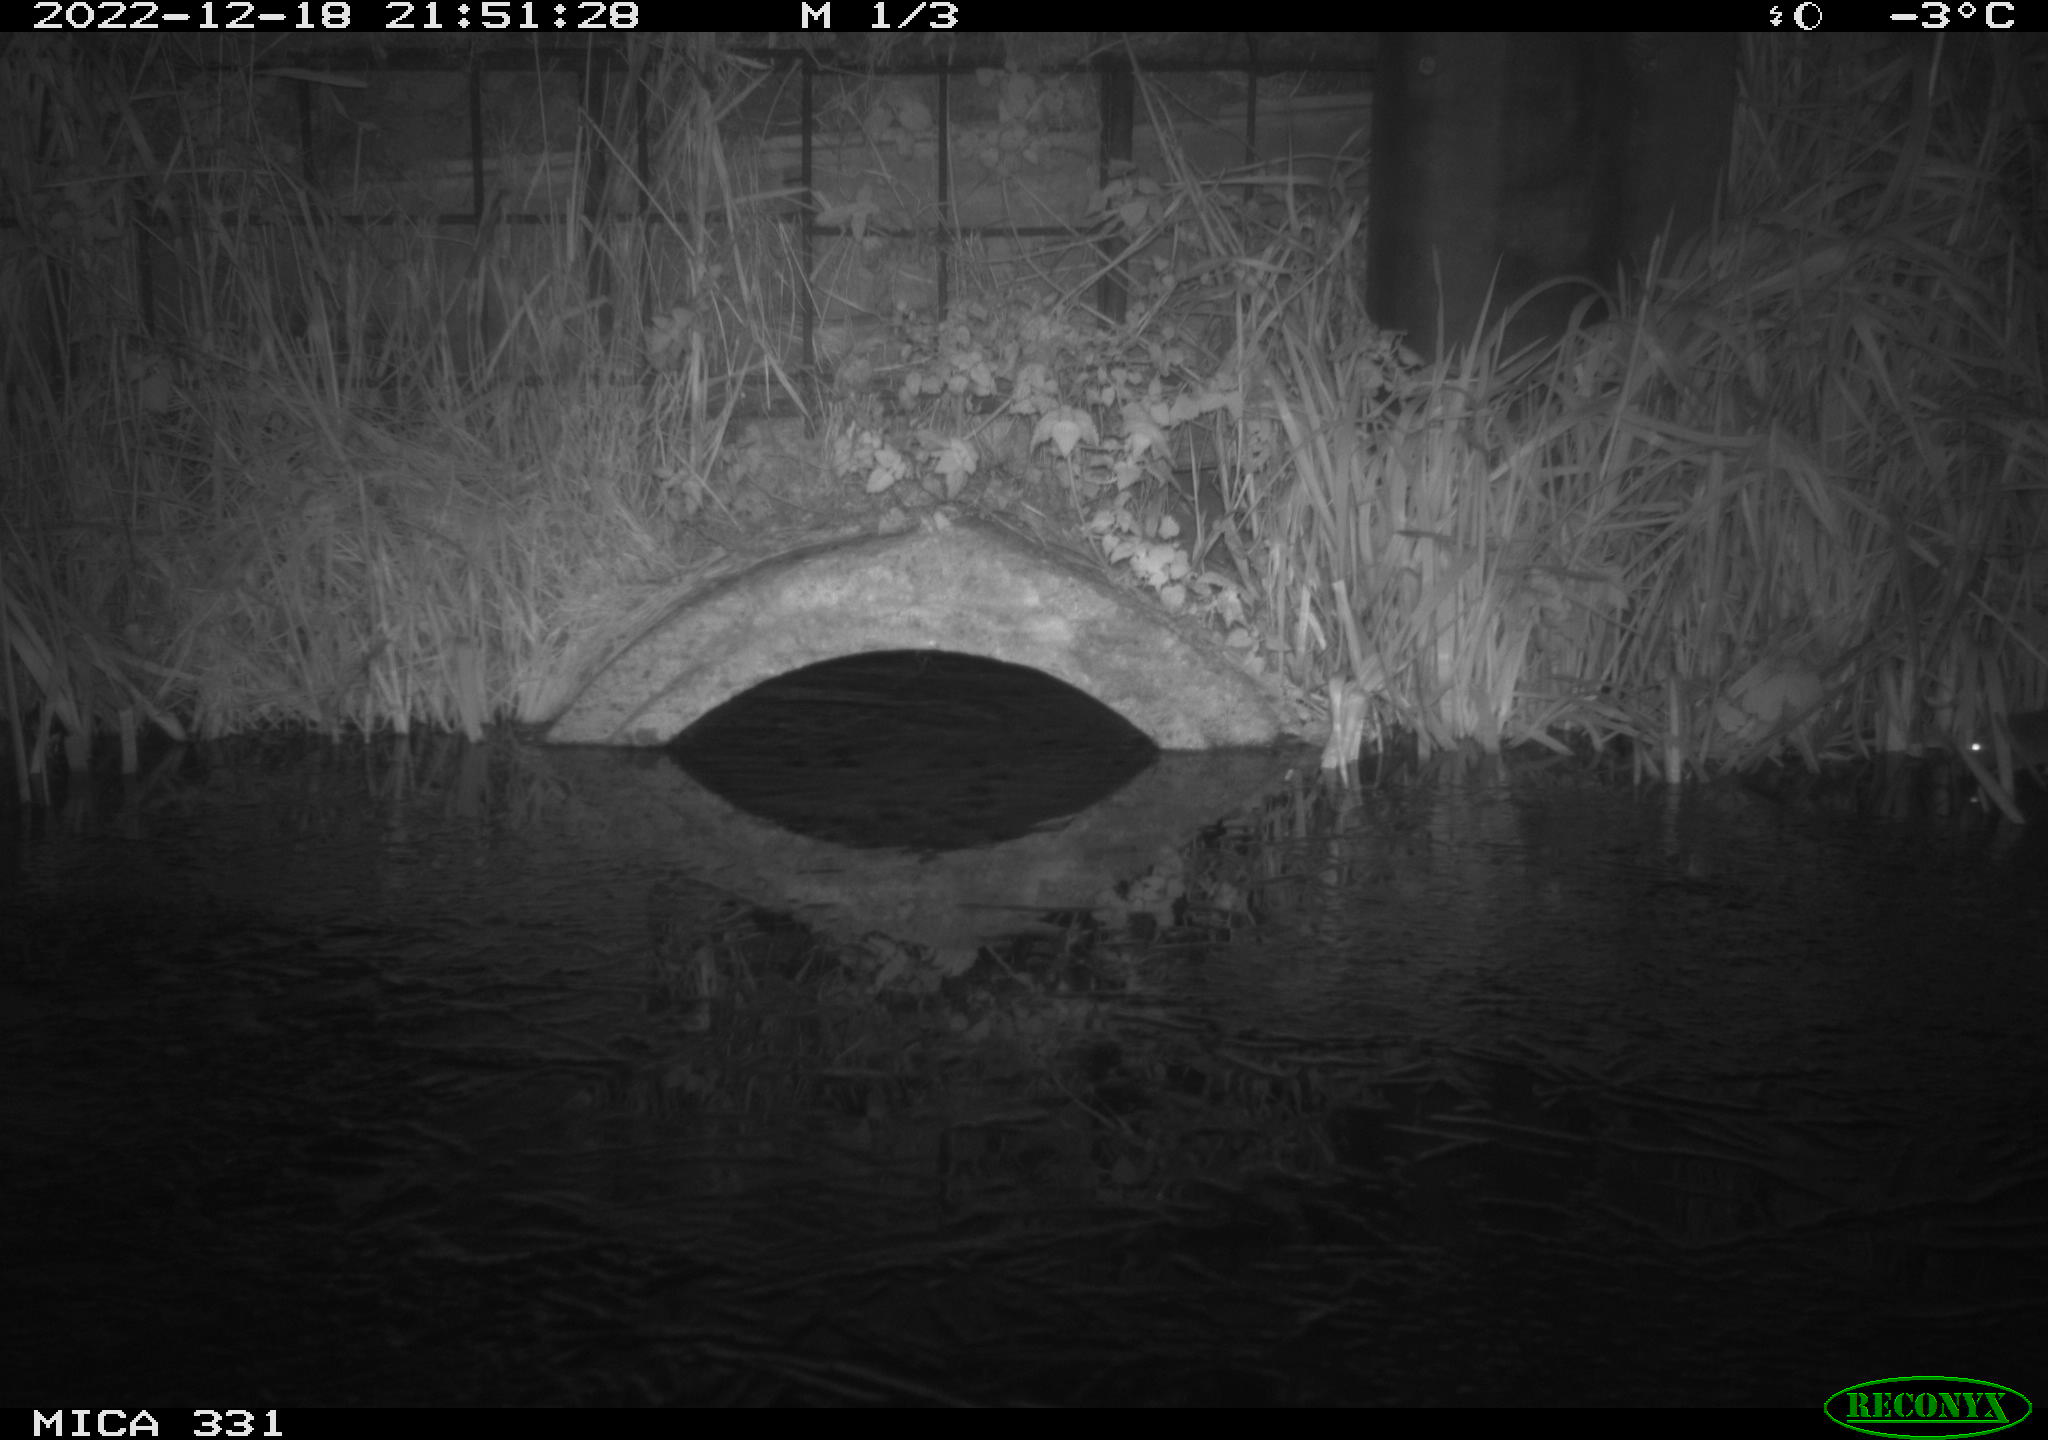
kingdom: Animalia
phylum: Chordata
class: Mammalia
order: Rodentia
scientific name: Rodentia
